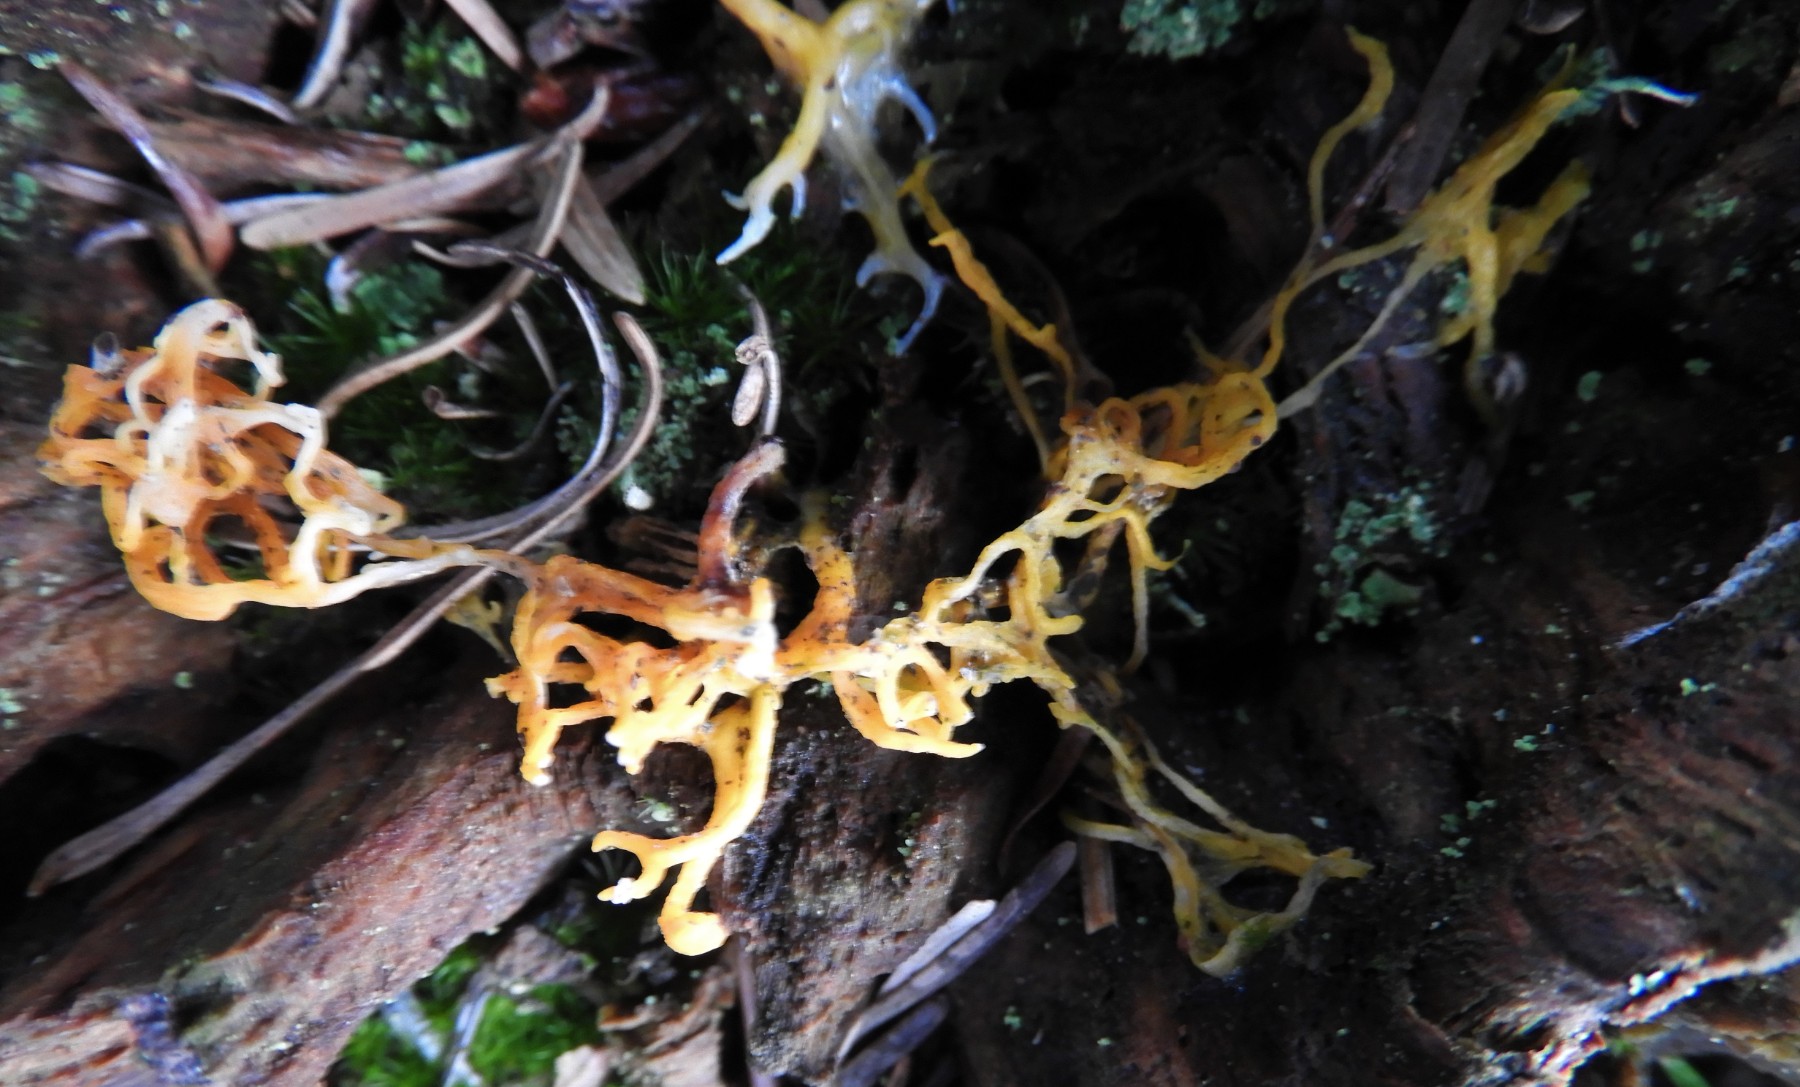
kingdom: Fungi
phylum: Basidiomycota
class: Dacrymycetes
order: Dacrymycetales
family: Dacrymycetaceae
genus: Calocera
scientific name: Calocera viscosa
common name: almindelig guldgaffel
